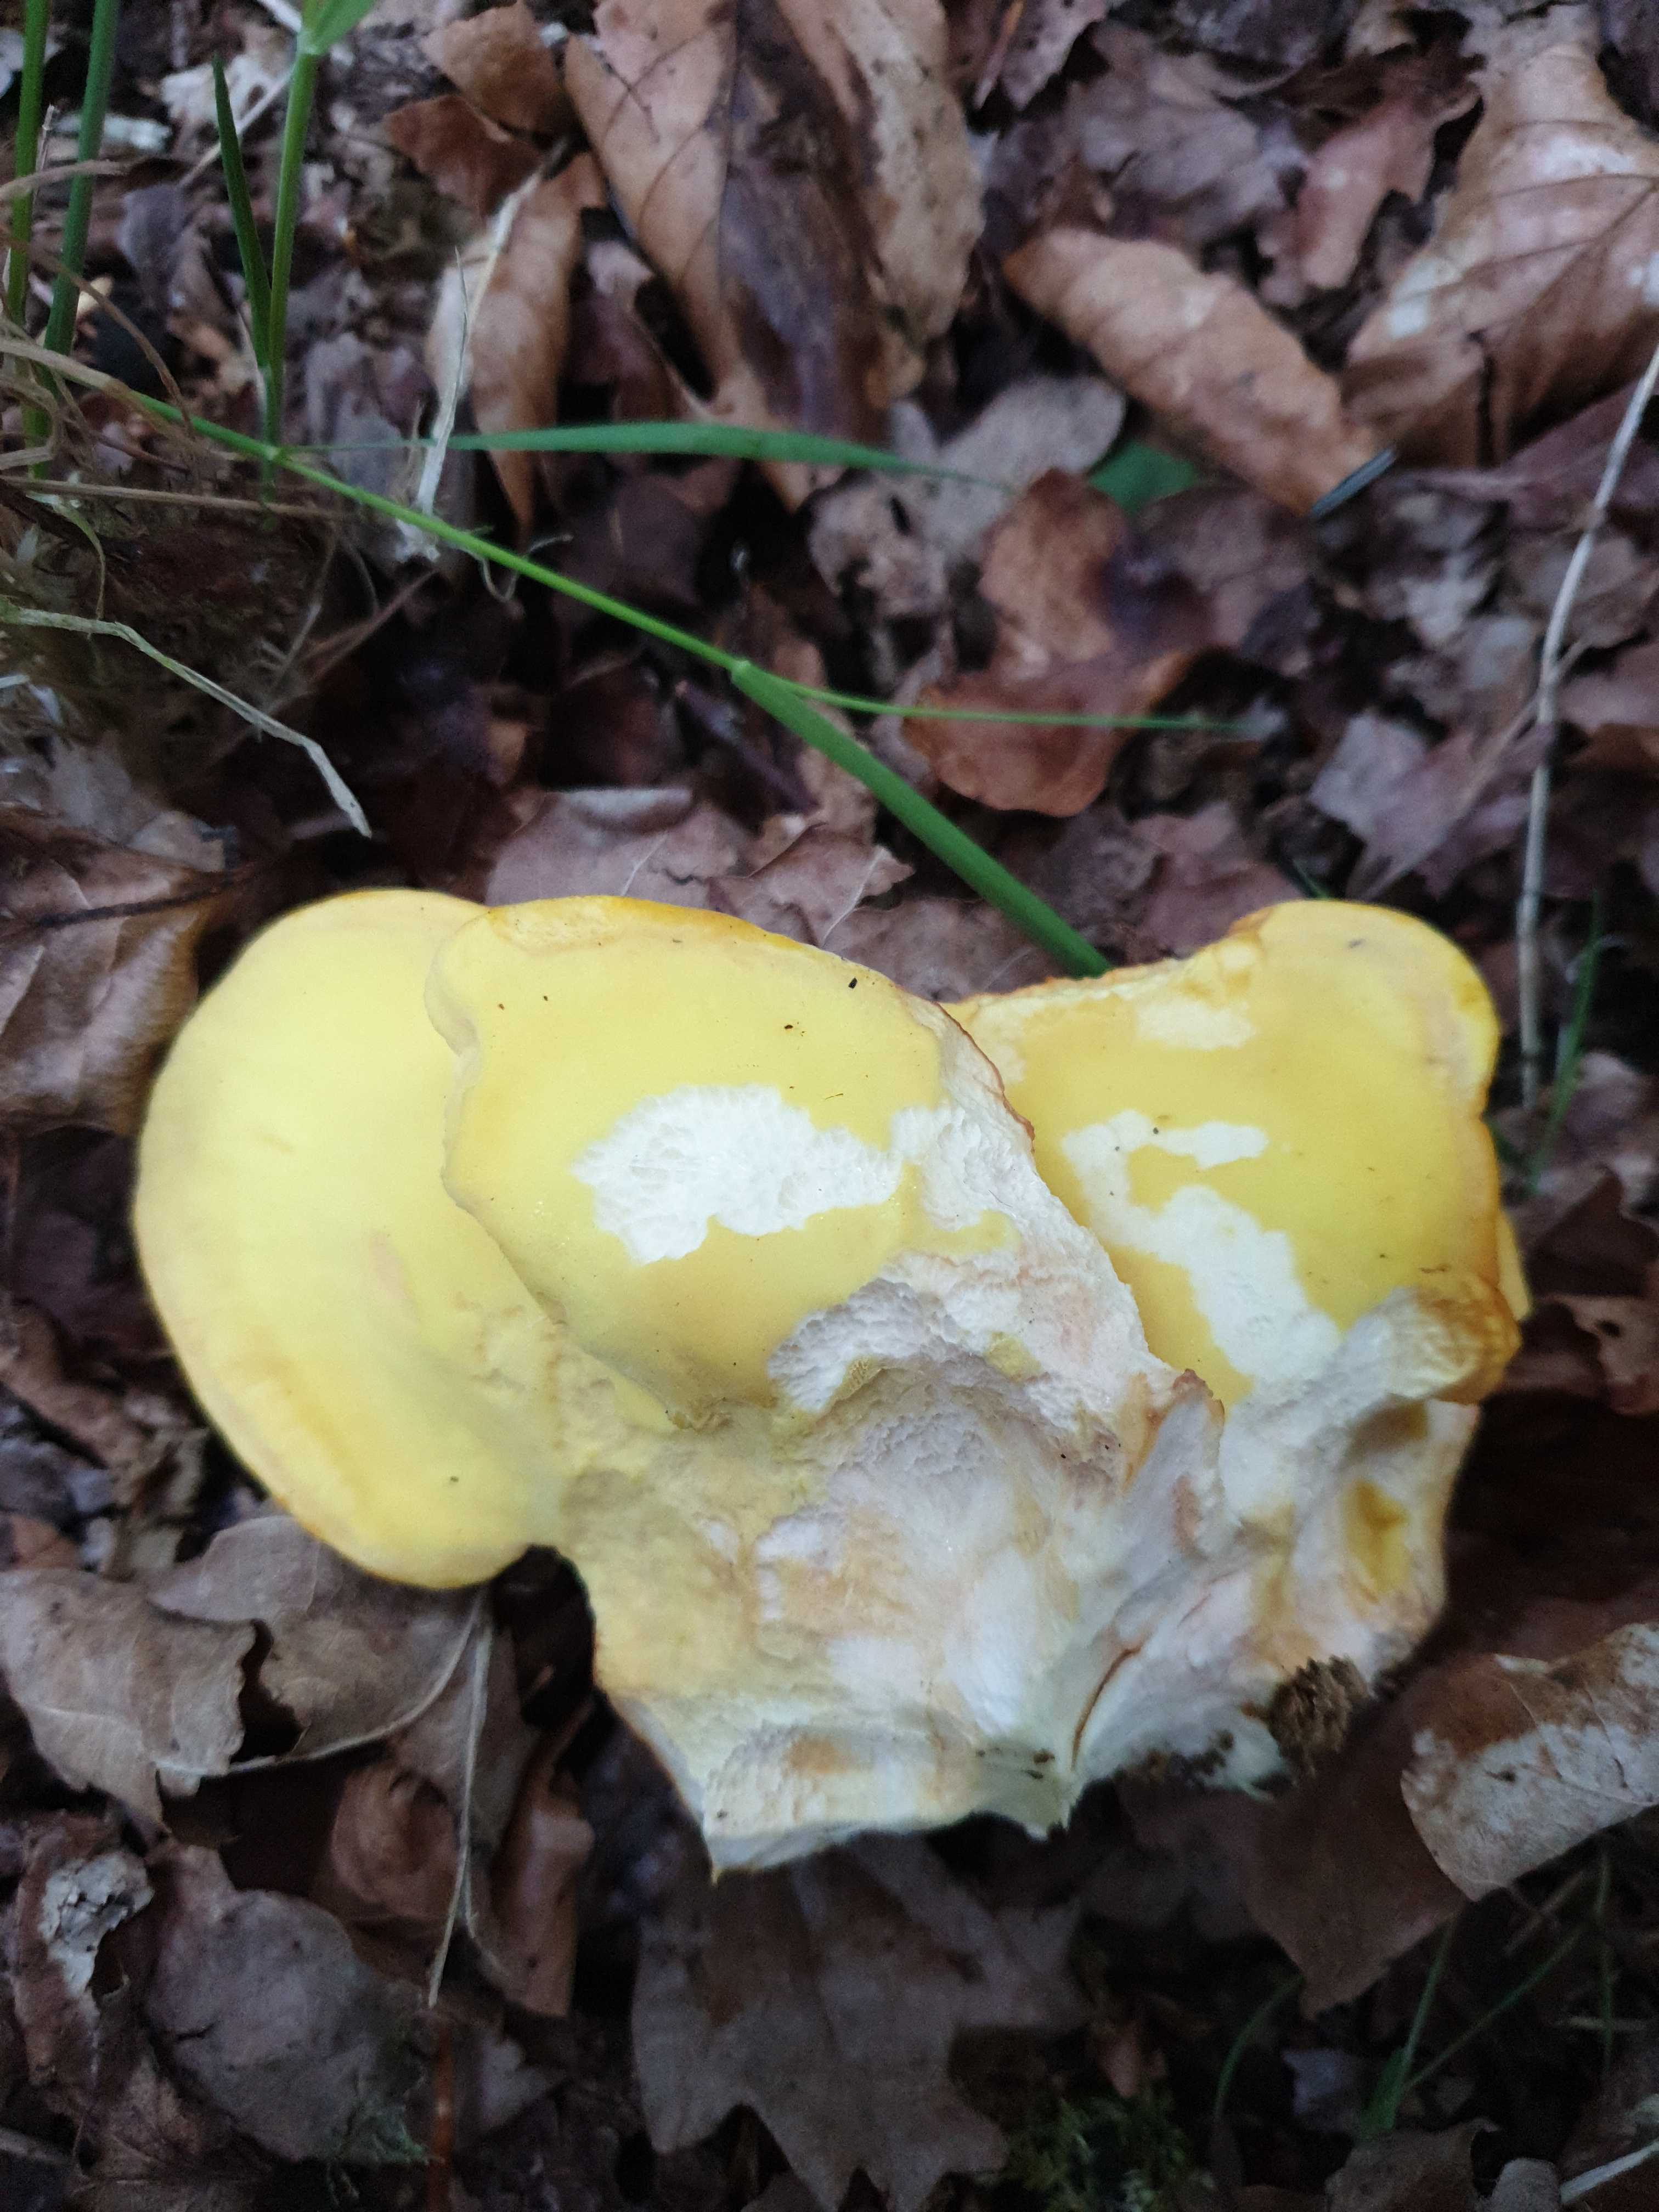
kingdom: Fungi
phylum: Basidiomycota
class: Agaricomycetes
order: Polyporales
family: Laetiporaceae
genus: Laetiporus
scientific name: Laetiporus sulphureus
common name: svovlporesvamp
